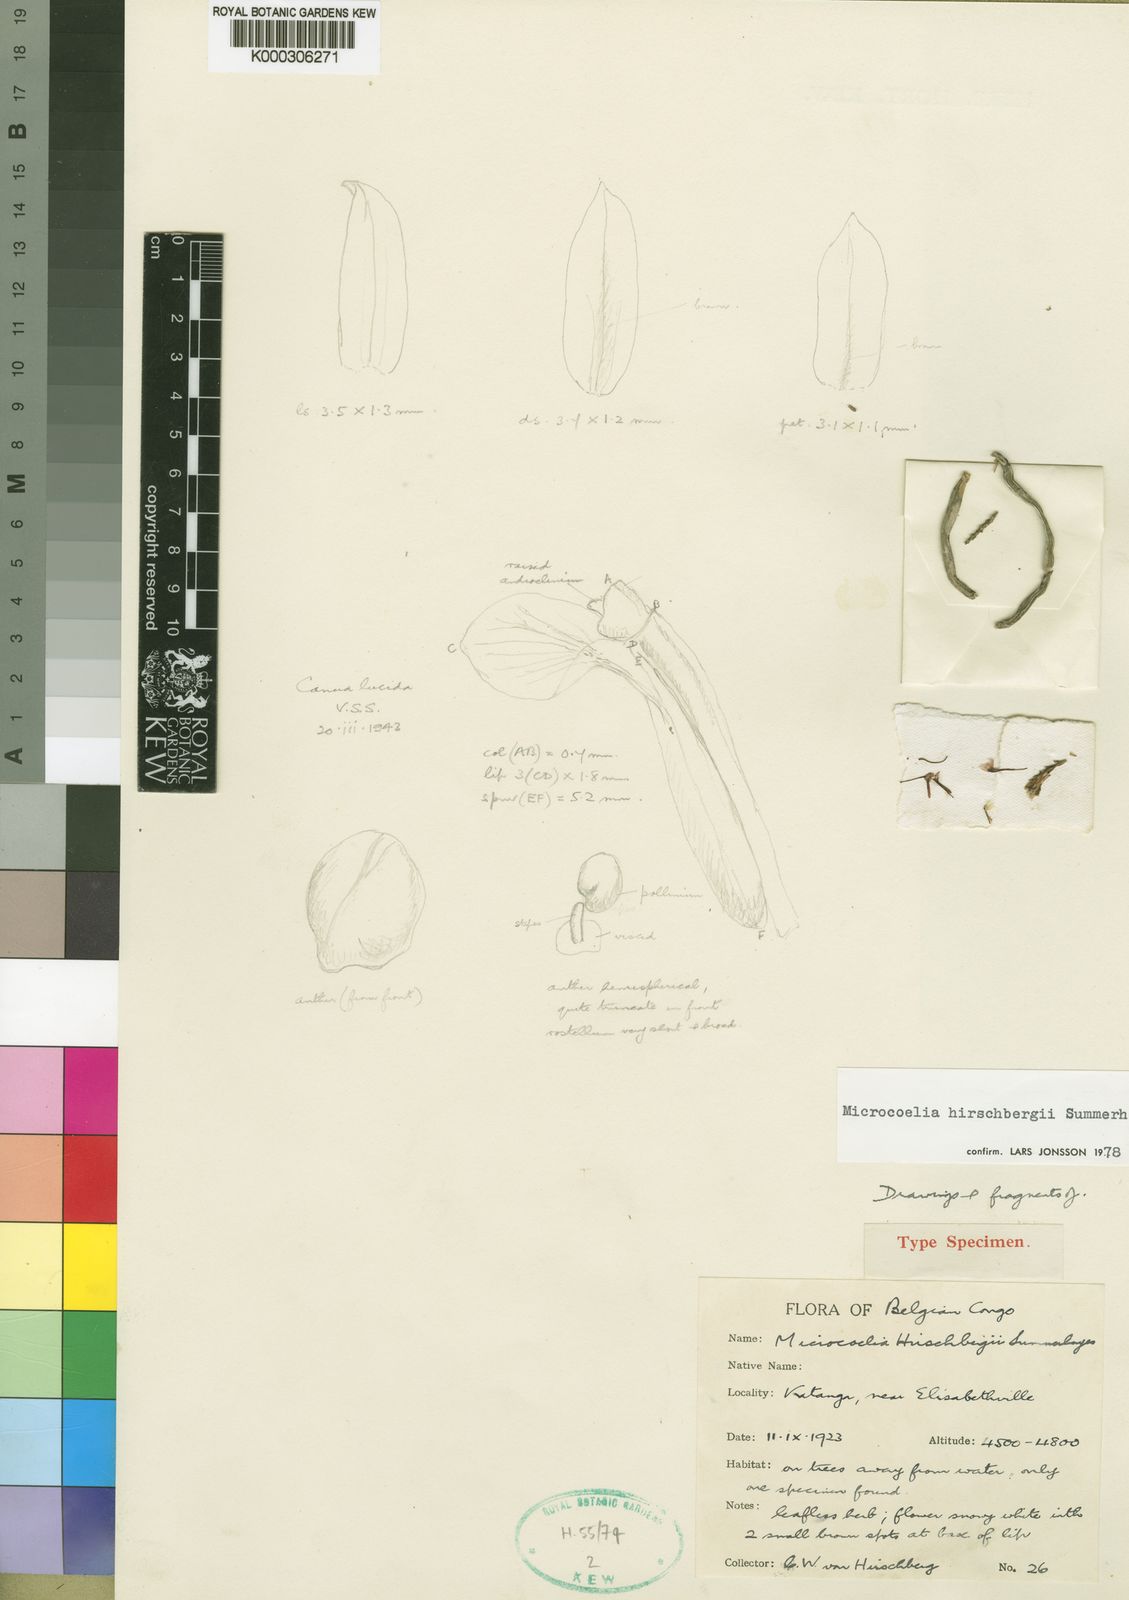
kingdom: Plantae
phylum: Tracheophyta
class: Liliopsida
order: Asparagales
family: Orchidaceae
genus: Microcoelia
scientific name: Microcoelia hirschbergii
